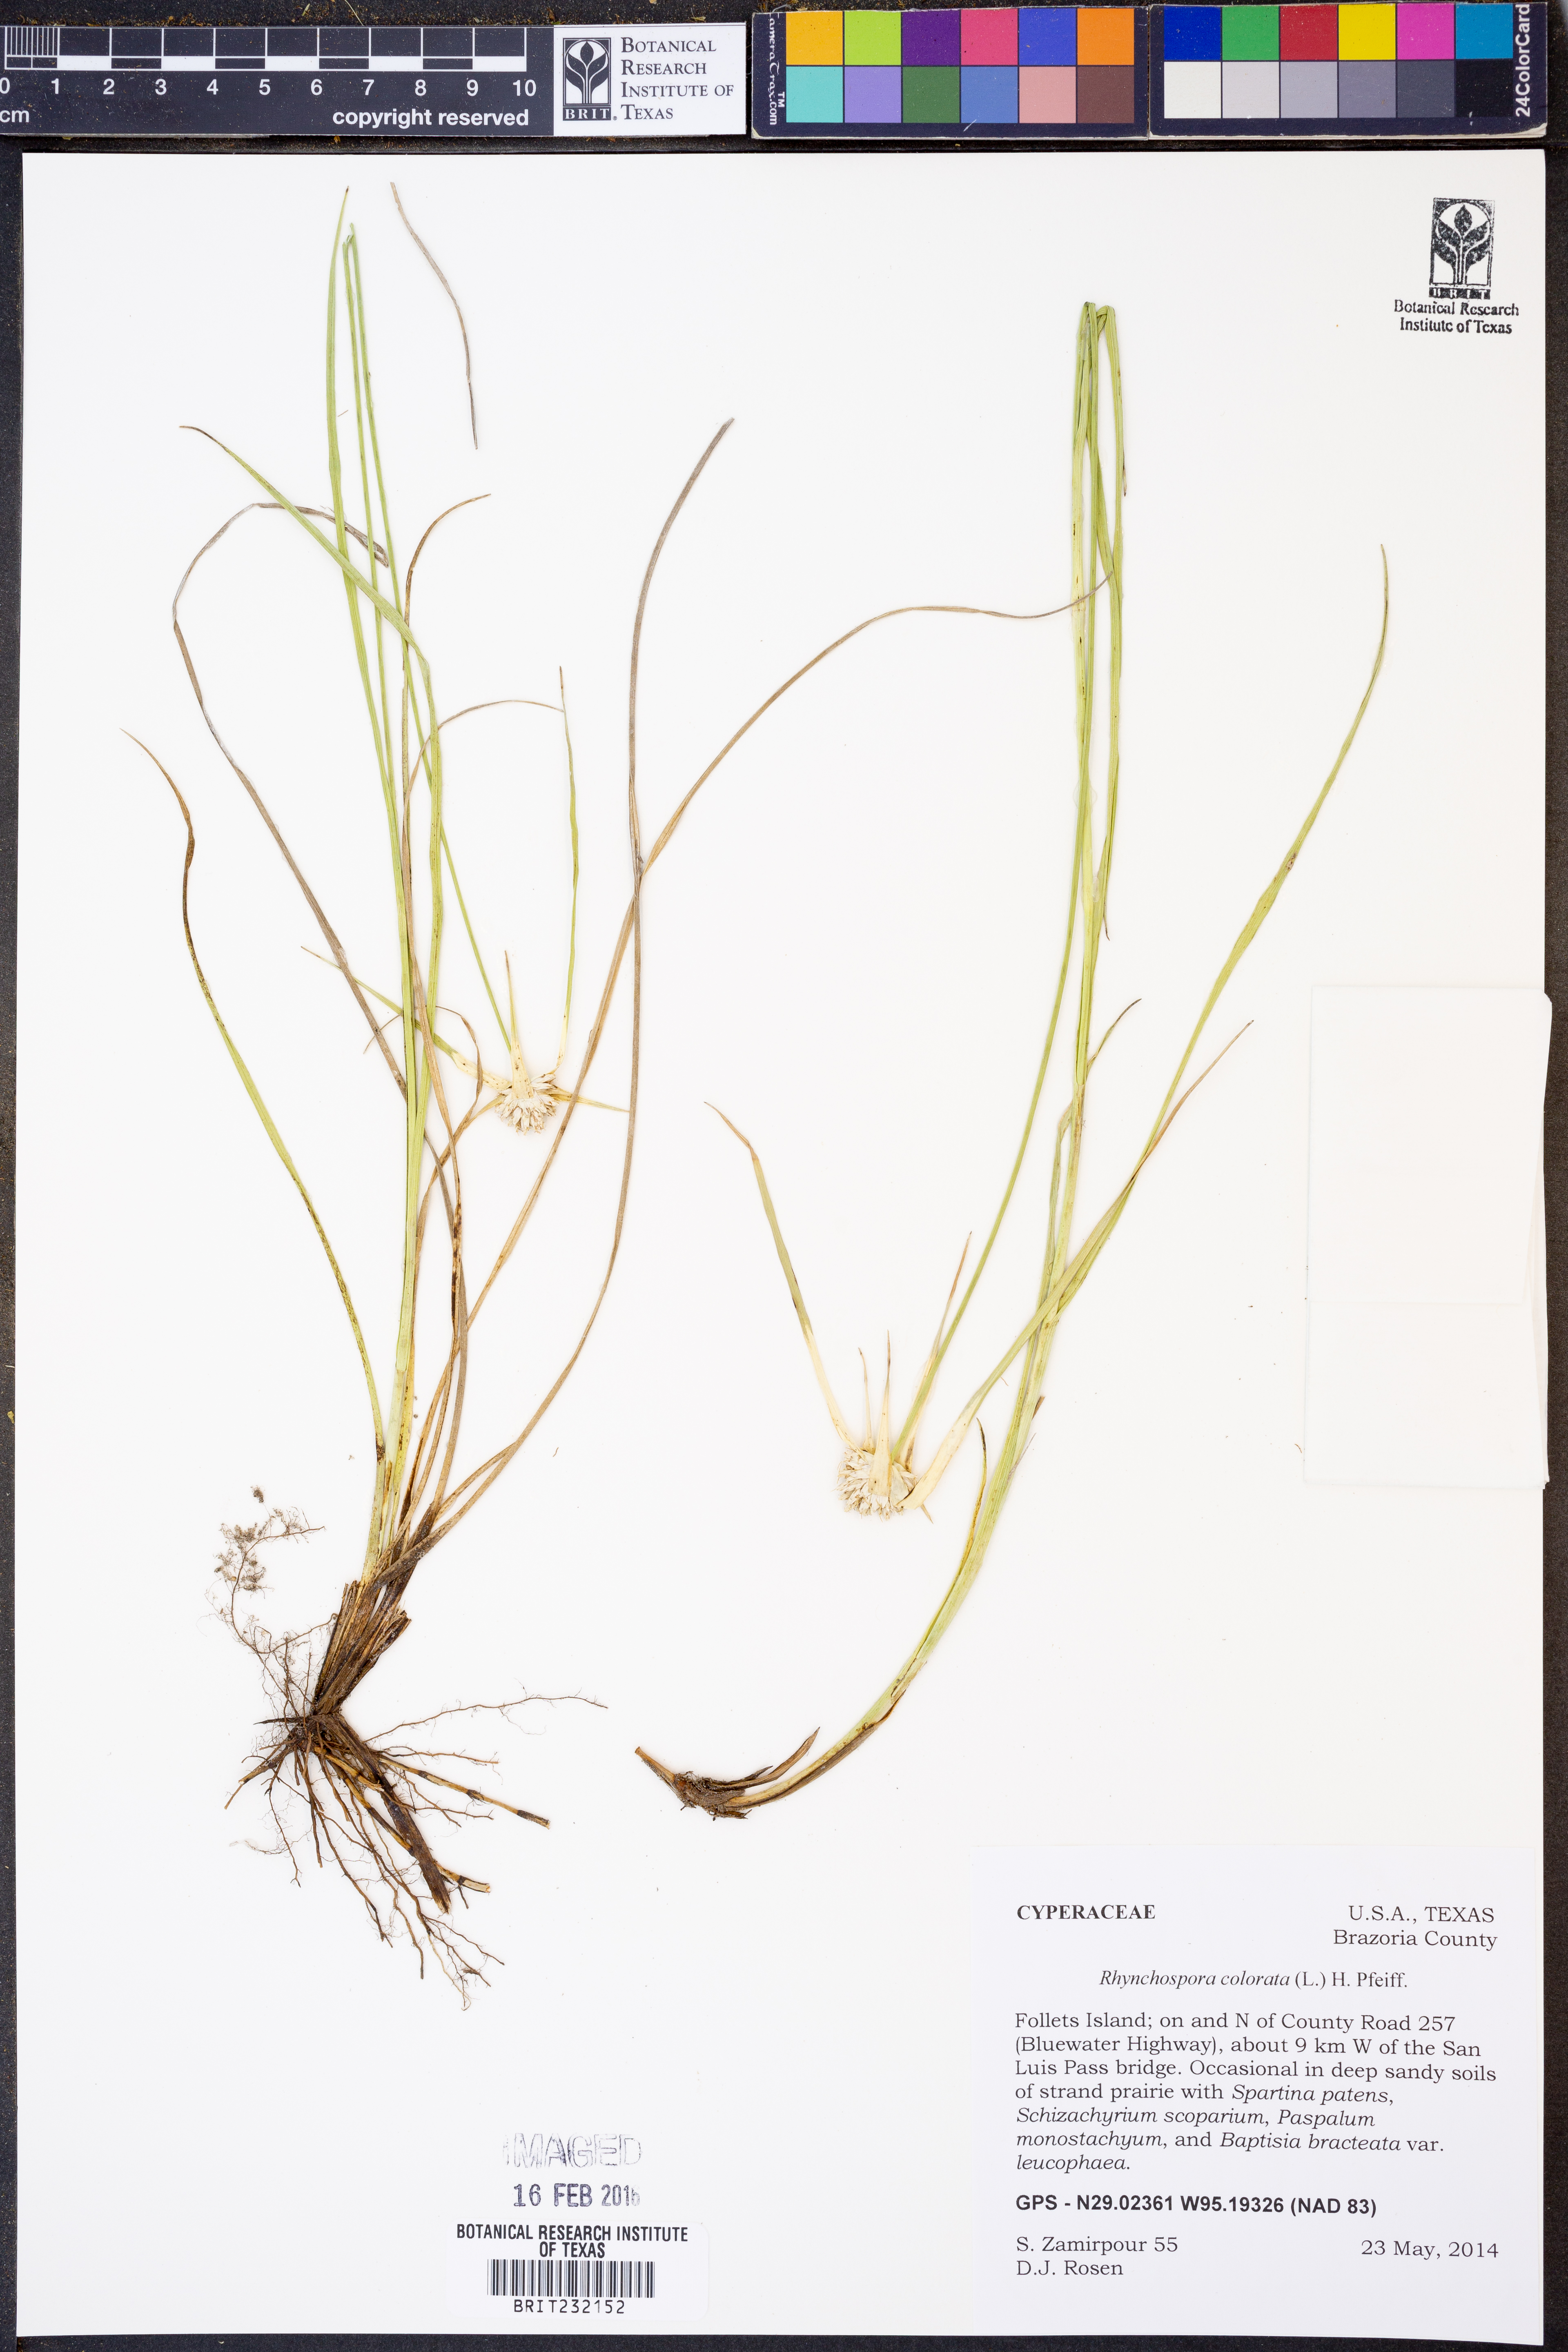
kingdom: Plantae
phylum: Tracheophyta
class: Liliopsida
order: Poales
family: Cyperaceae
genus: Rhynchospora
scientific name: Rhynchospora colorata
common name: Star sedge
